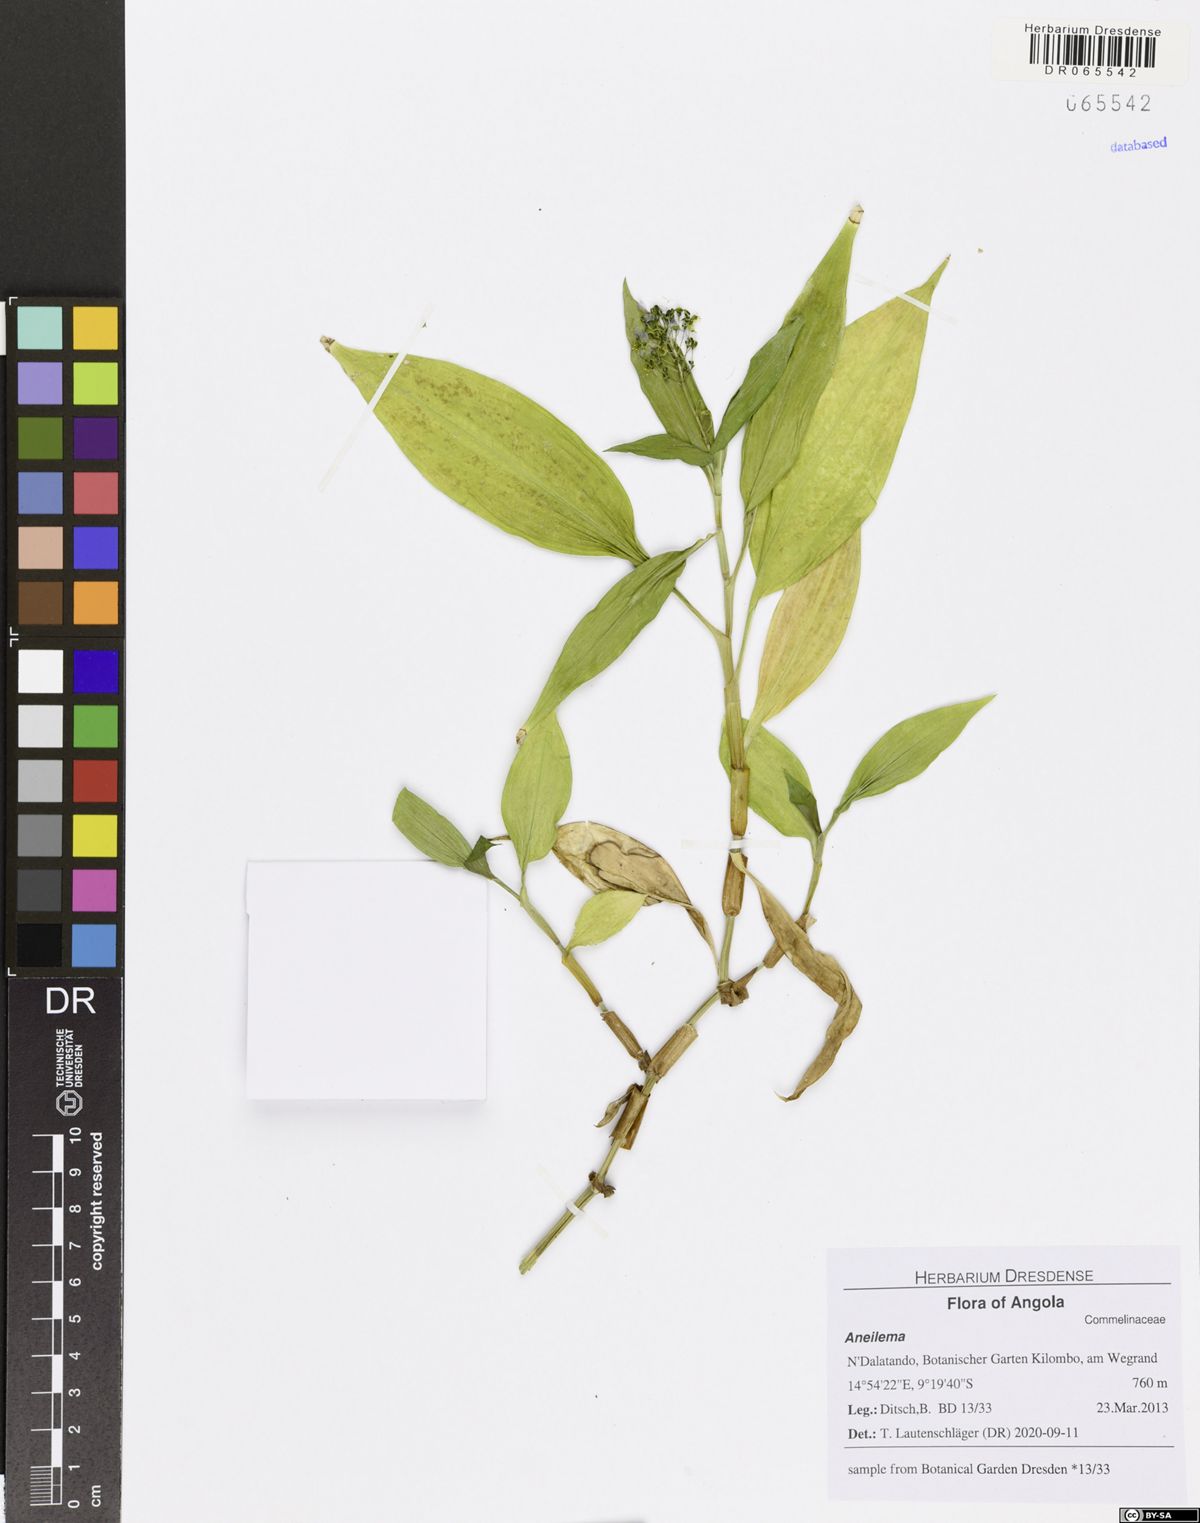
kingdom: Plantae
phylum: Tracheophyta
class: Liliopsida
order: Commelinales
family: Commelinaceae
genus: Aneilema
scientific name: Aneilema beniniense
